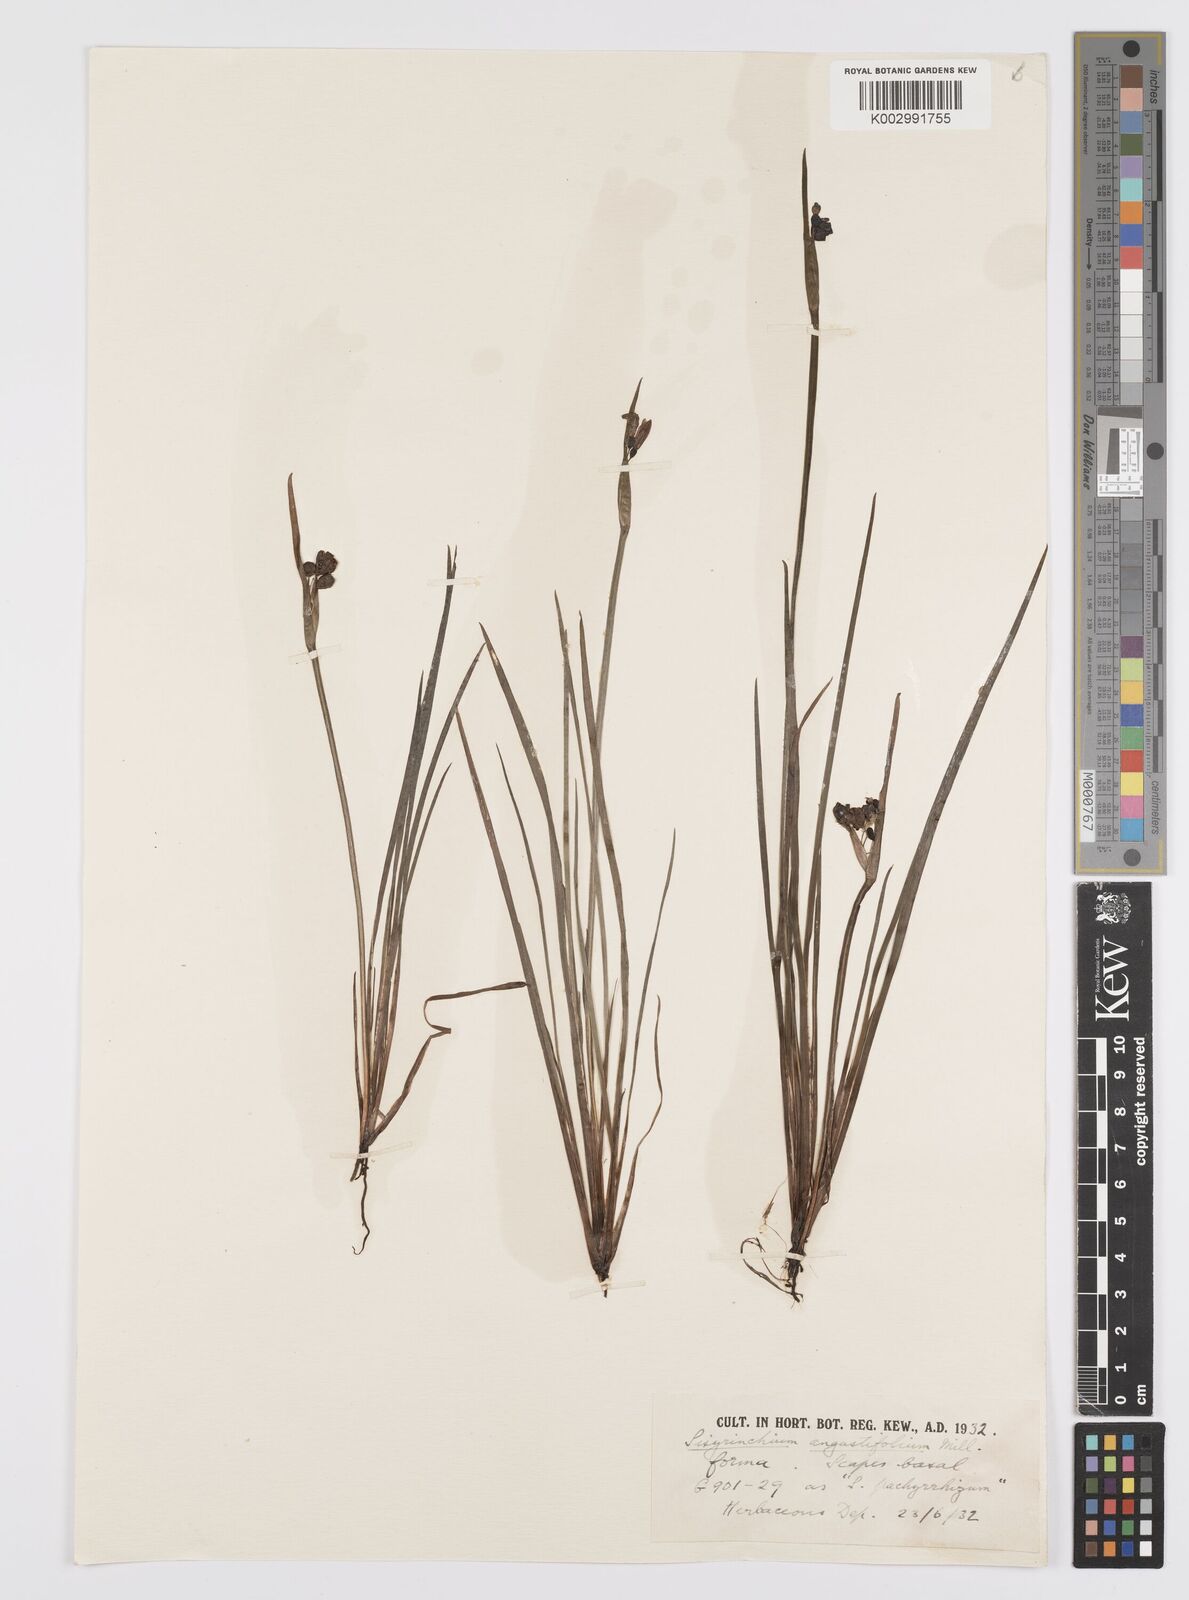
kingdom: Plantae
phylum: Tracheophyta
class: Liliopsida
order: Asparagales
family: Iridaceae
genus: Sisyrinchium
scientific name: Sisyrinchium bermudiana
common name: Blue-eyed-grass
